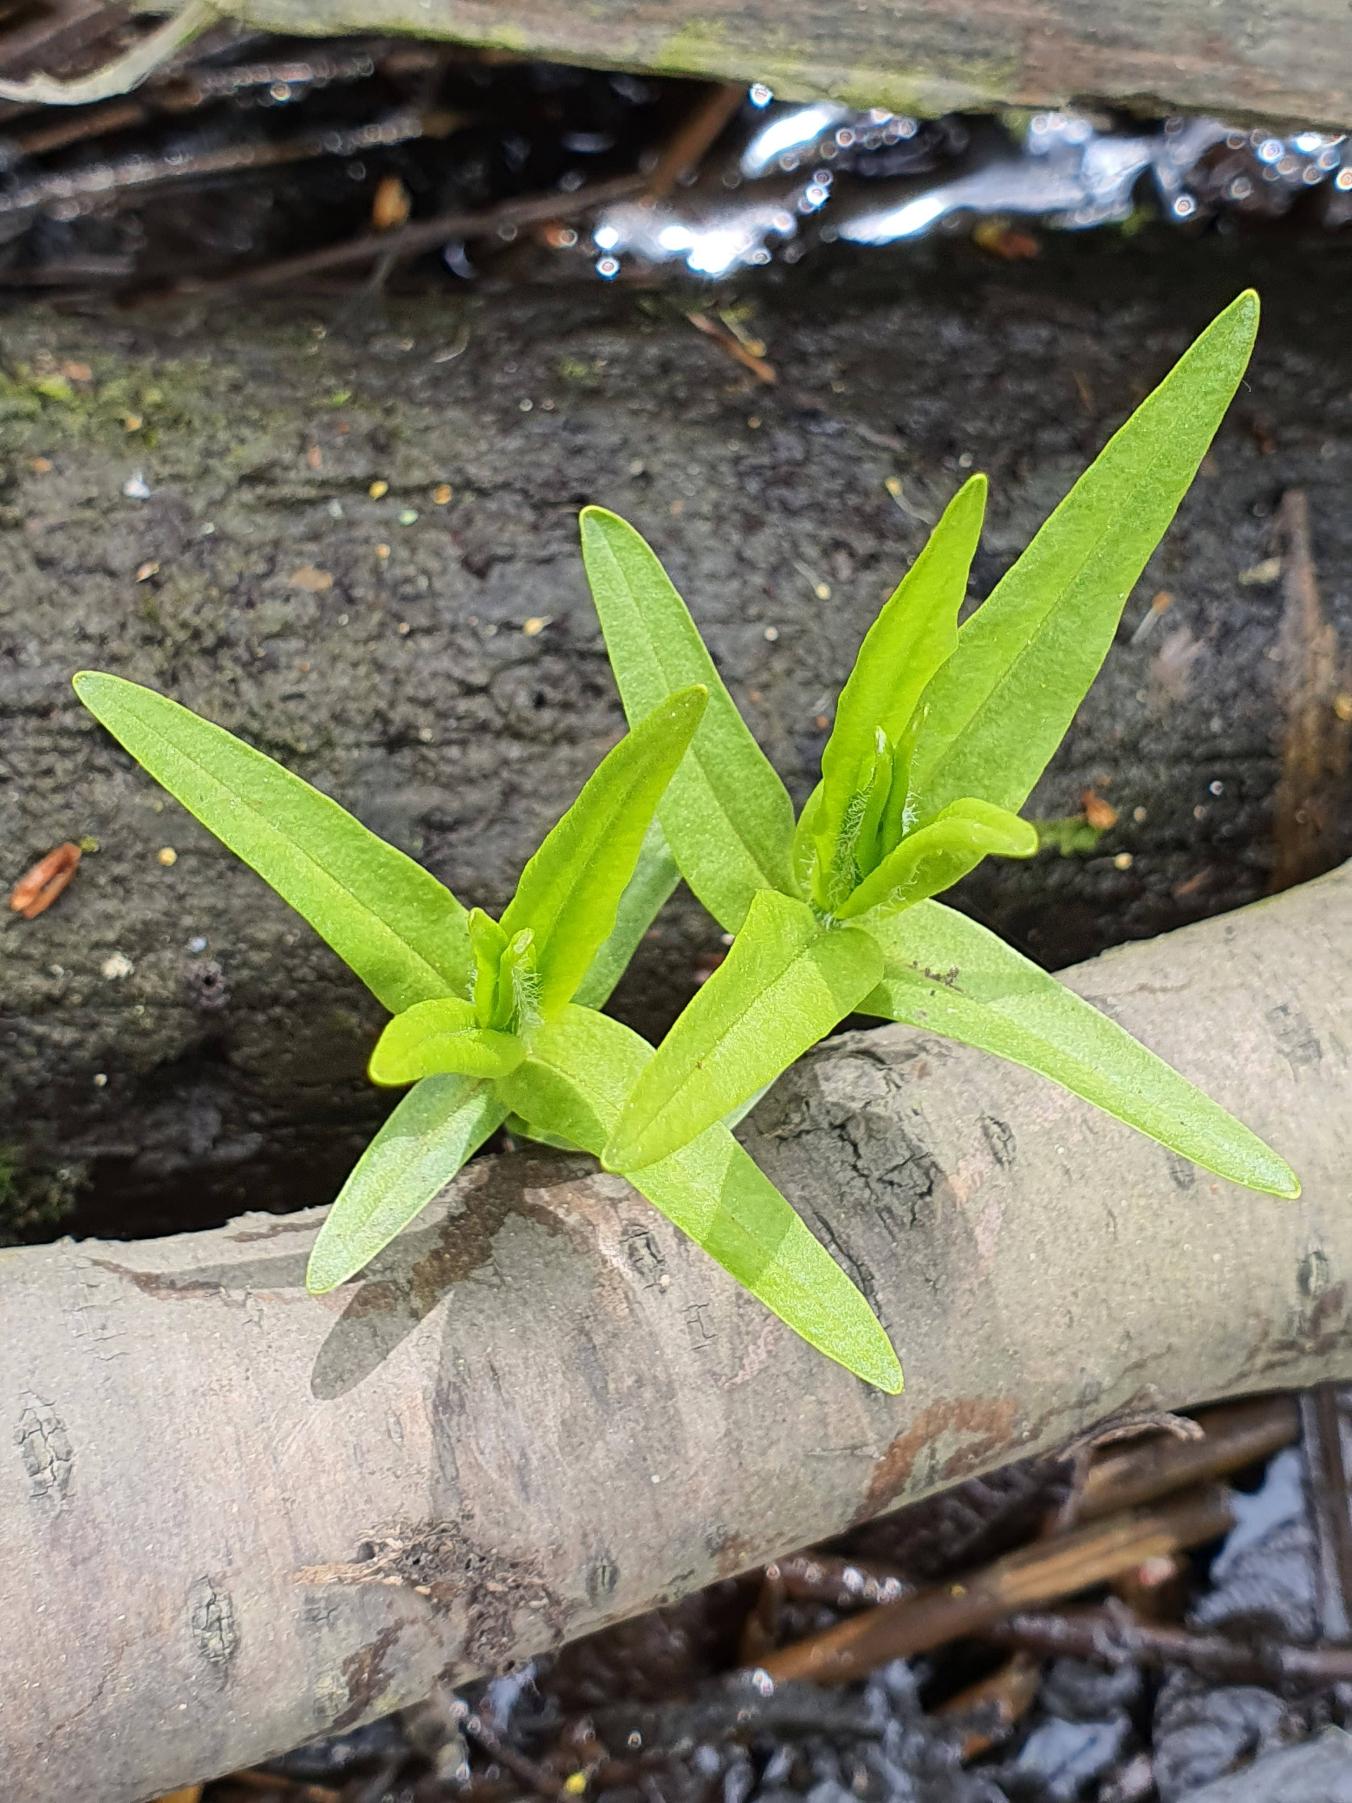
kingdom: Plantae
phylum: Tracheophyta
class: Magnoliopsida
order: Ericales
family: Primulaceae
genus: Lysimachia
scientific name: Lysimachia thyrsiflora
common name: Dusk-fredløs
